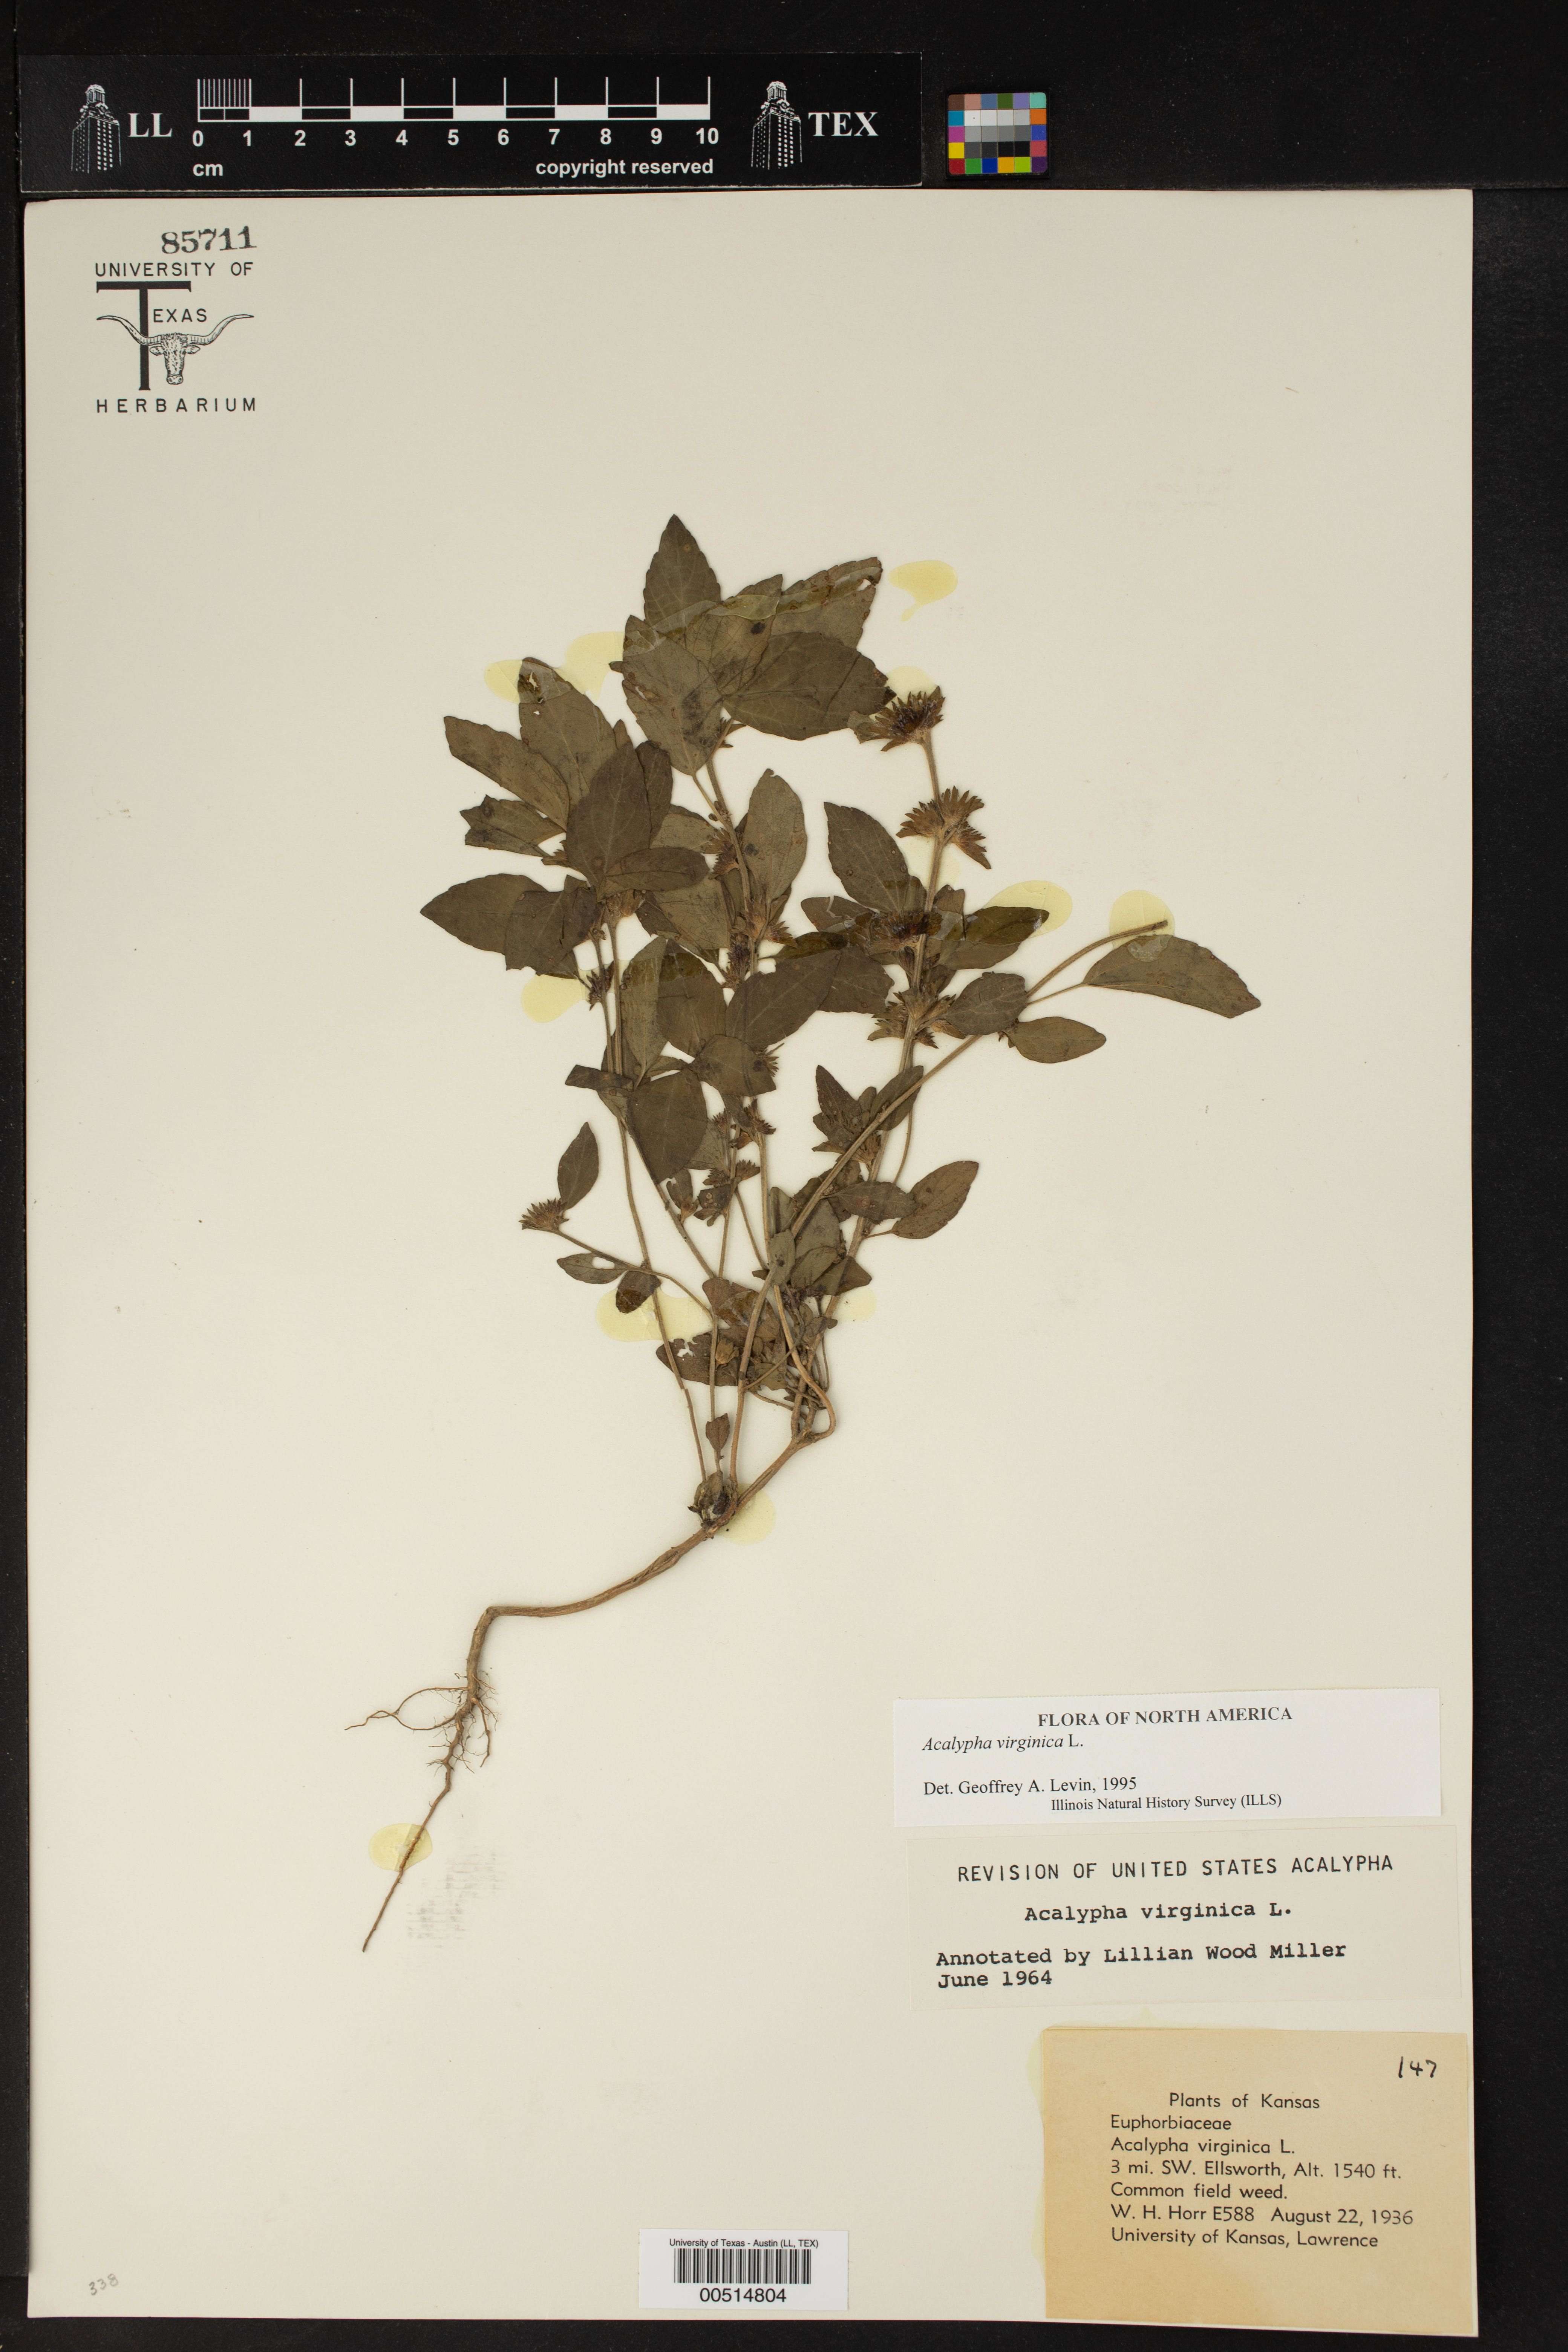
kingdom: Plantae
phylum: Tracheophyta
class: Magnoliopsida
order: Malpighiales
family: Euphorbiaceae
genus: Acalypha
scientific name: Acalypha virginica
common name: Virginia copperleaf
